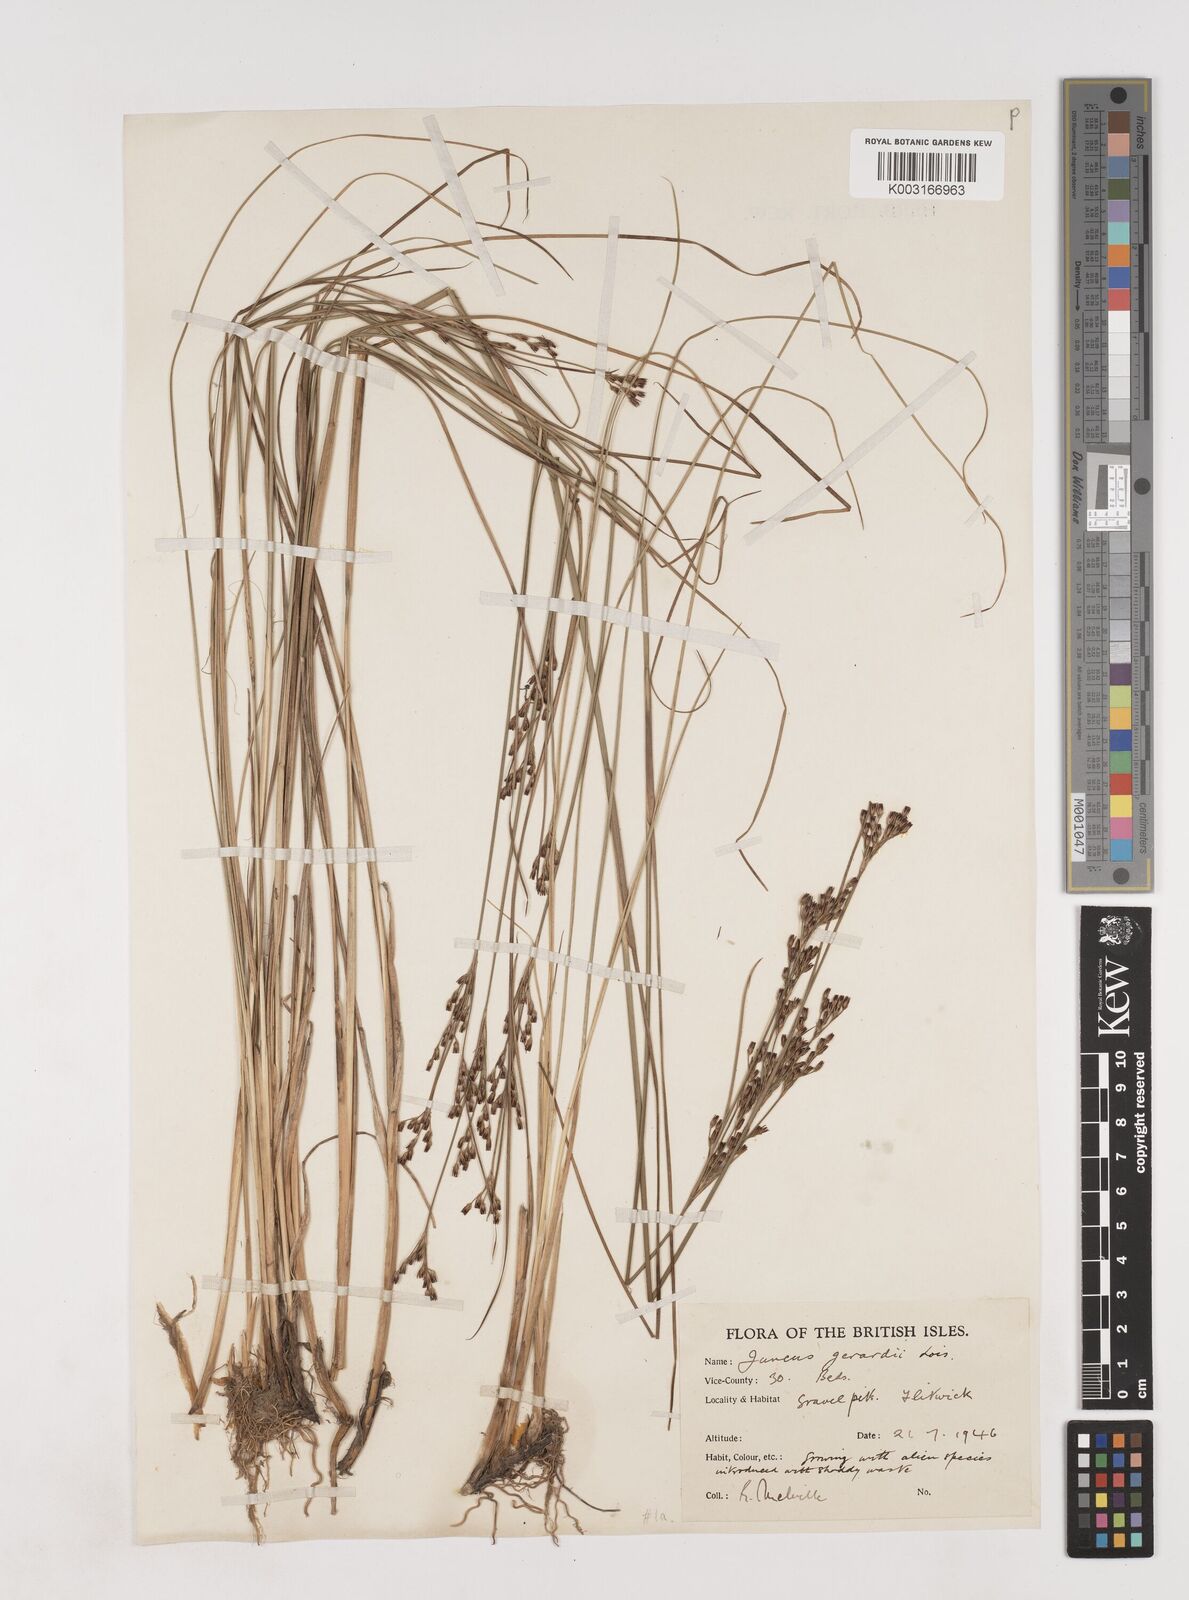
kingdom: Plantae
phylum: Tracheophyta
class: Liliopsida
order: Poales
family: Juncaceae
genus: Juncus
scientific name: Juncus gerardi
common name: Saltmarsh rush
